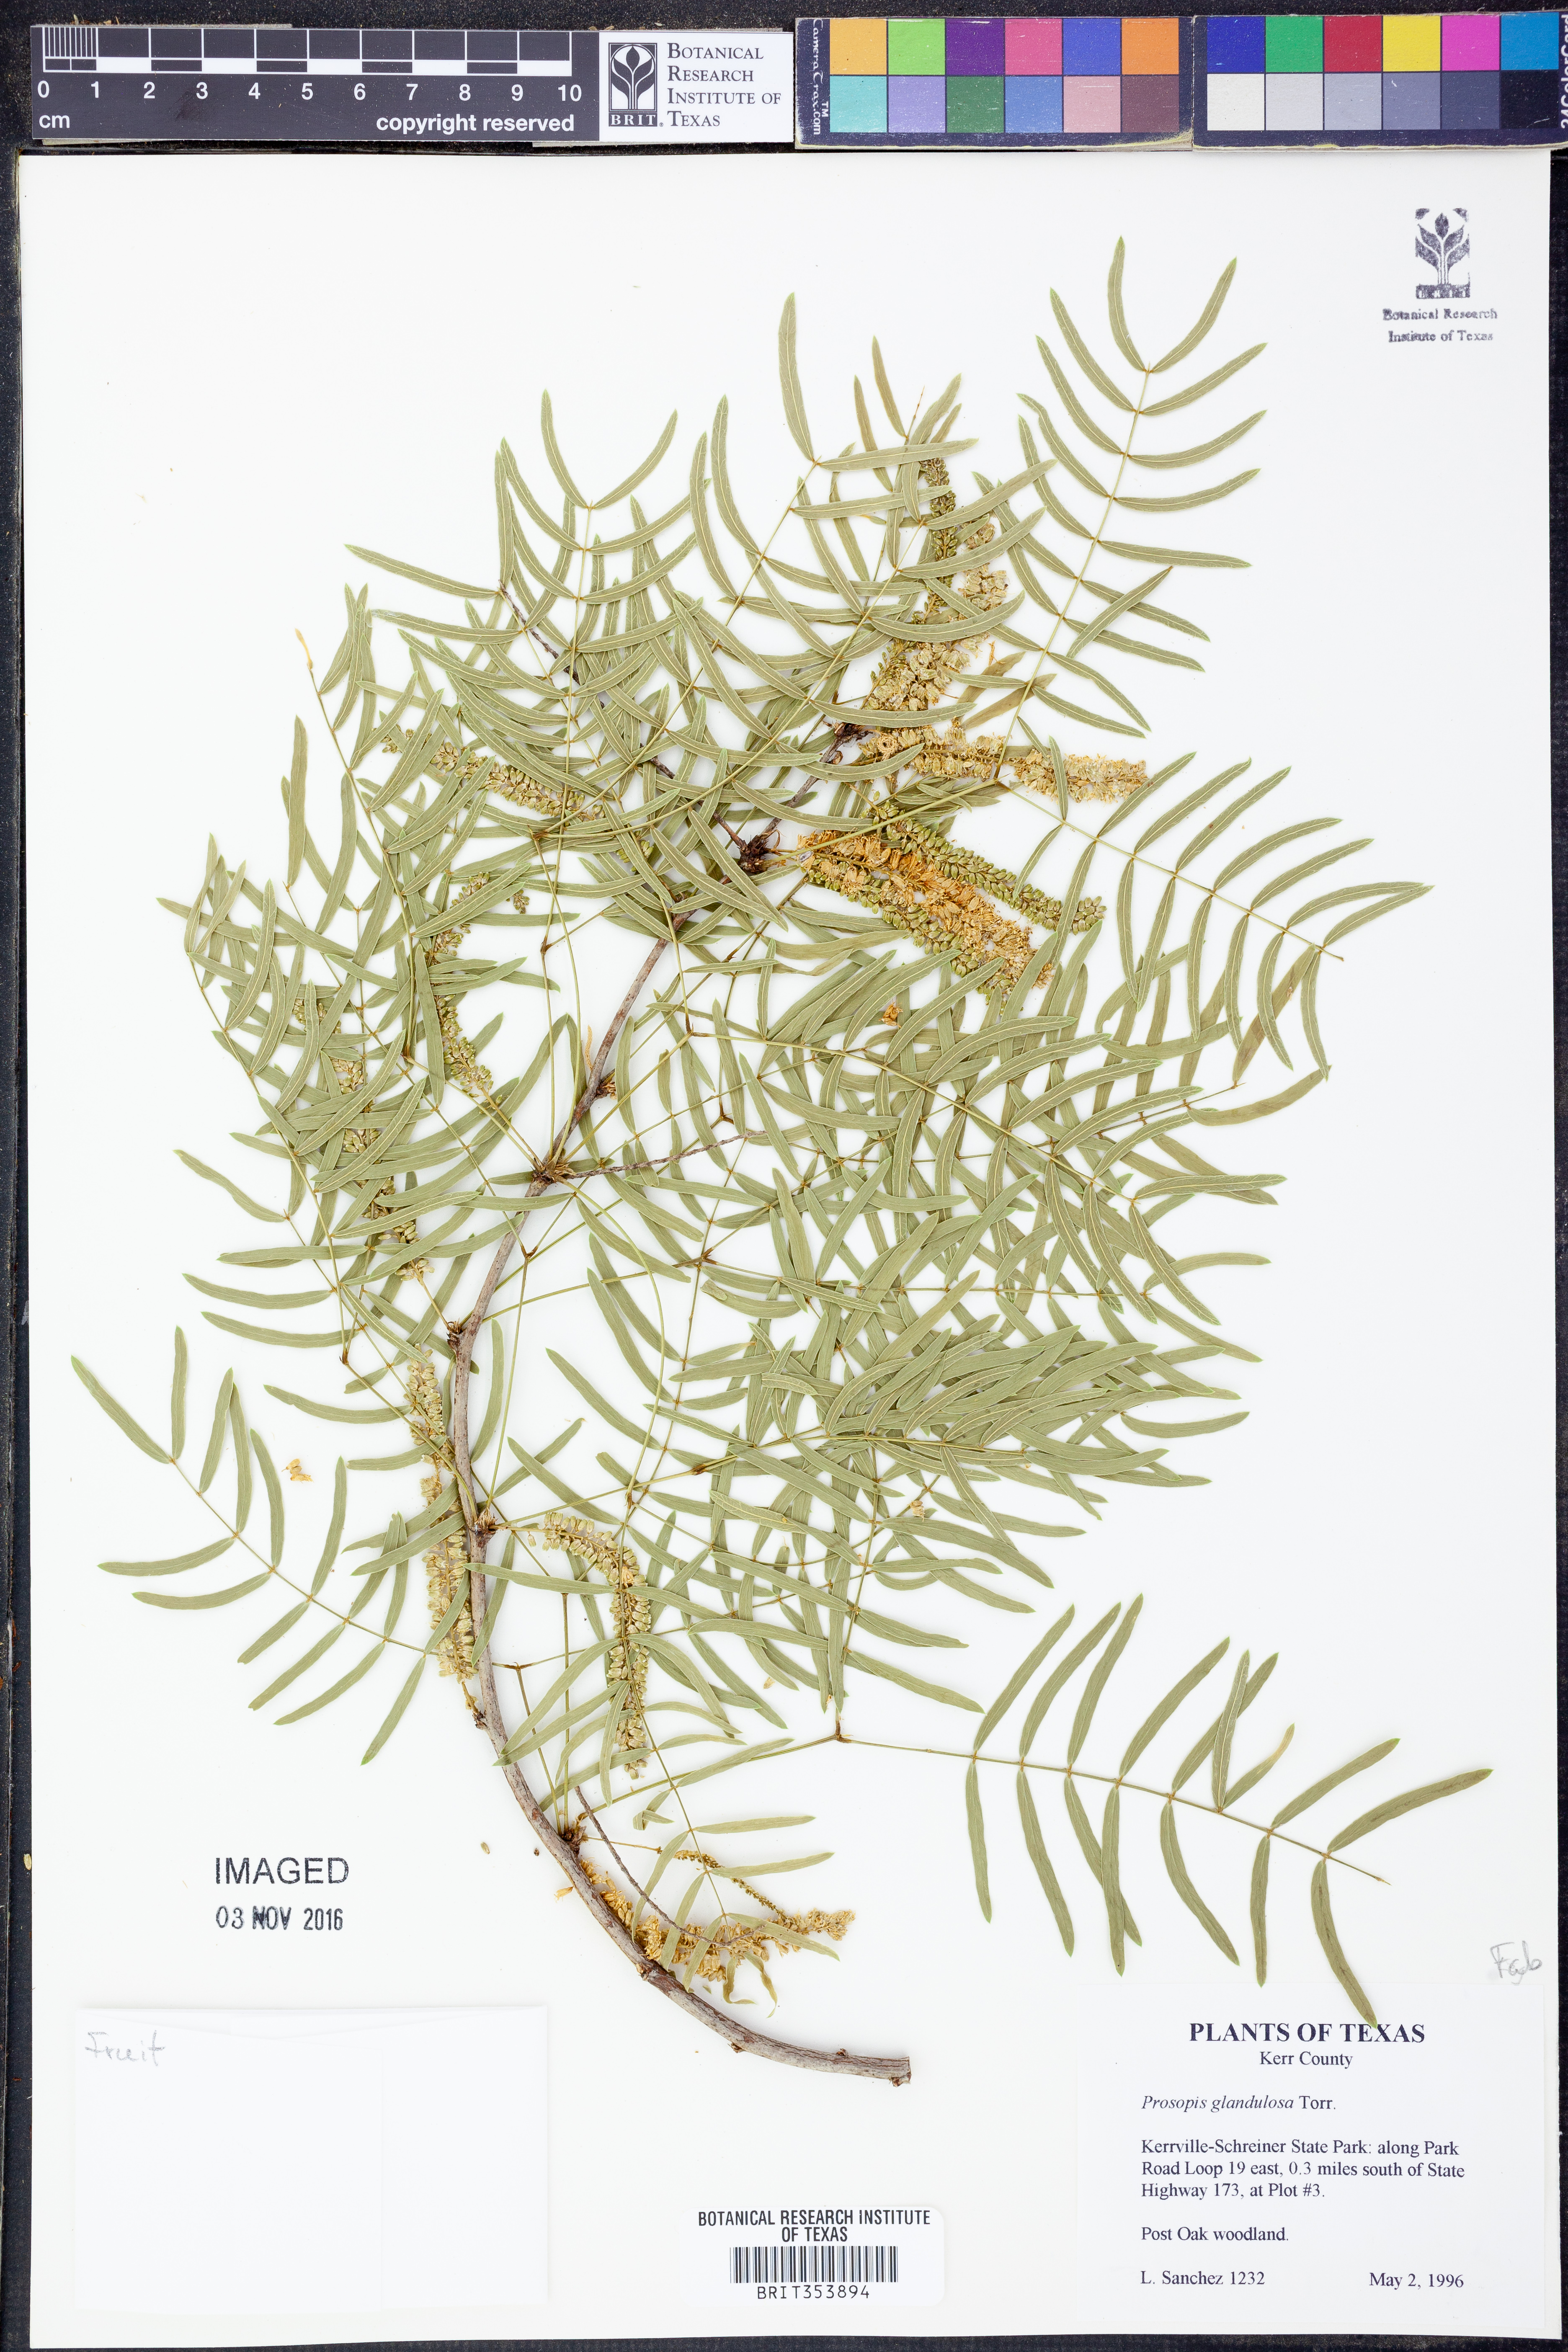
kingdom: Plantae
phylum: Tracheophyta
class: Magnoliopsida
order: Fabales
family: Fabaceae
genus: Prosopis
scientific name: Prosopis glandulosa
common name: Honey mesquite
